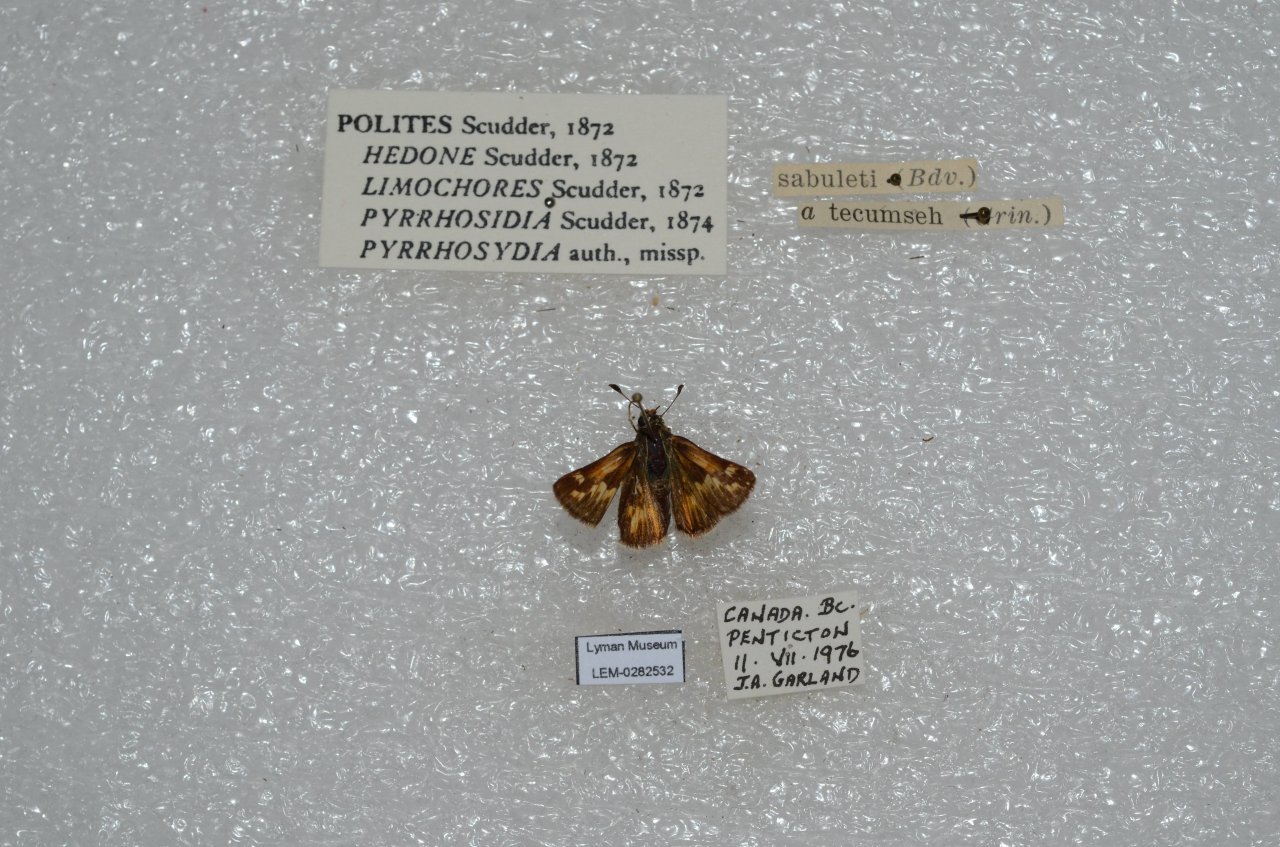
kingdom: Animalia
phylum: Arthropoda
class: Insecta
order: Lepidoptera
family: Hesperiidae
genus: Polites
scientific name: Polites sabuleti
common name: Sandhill Skipper
